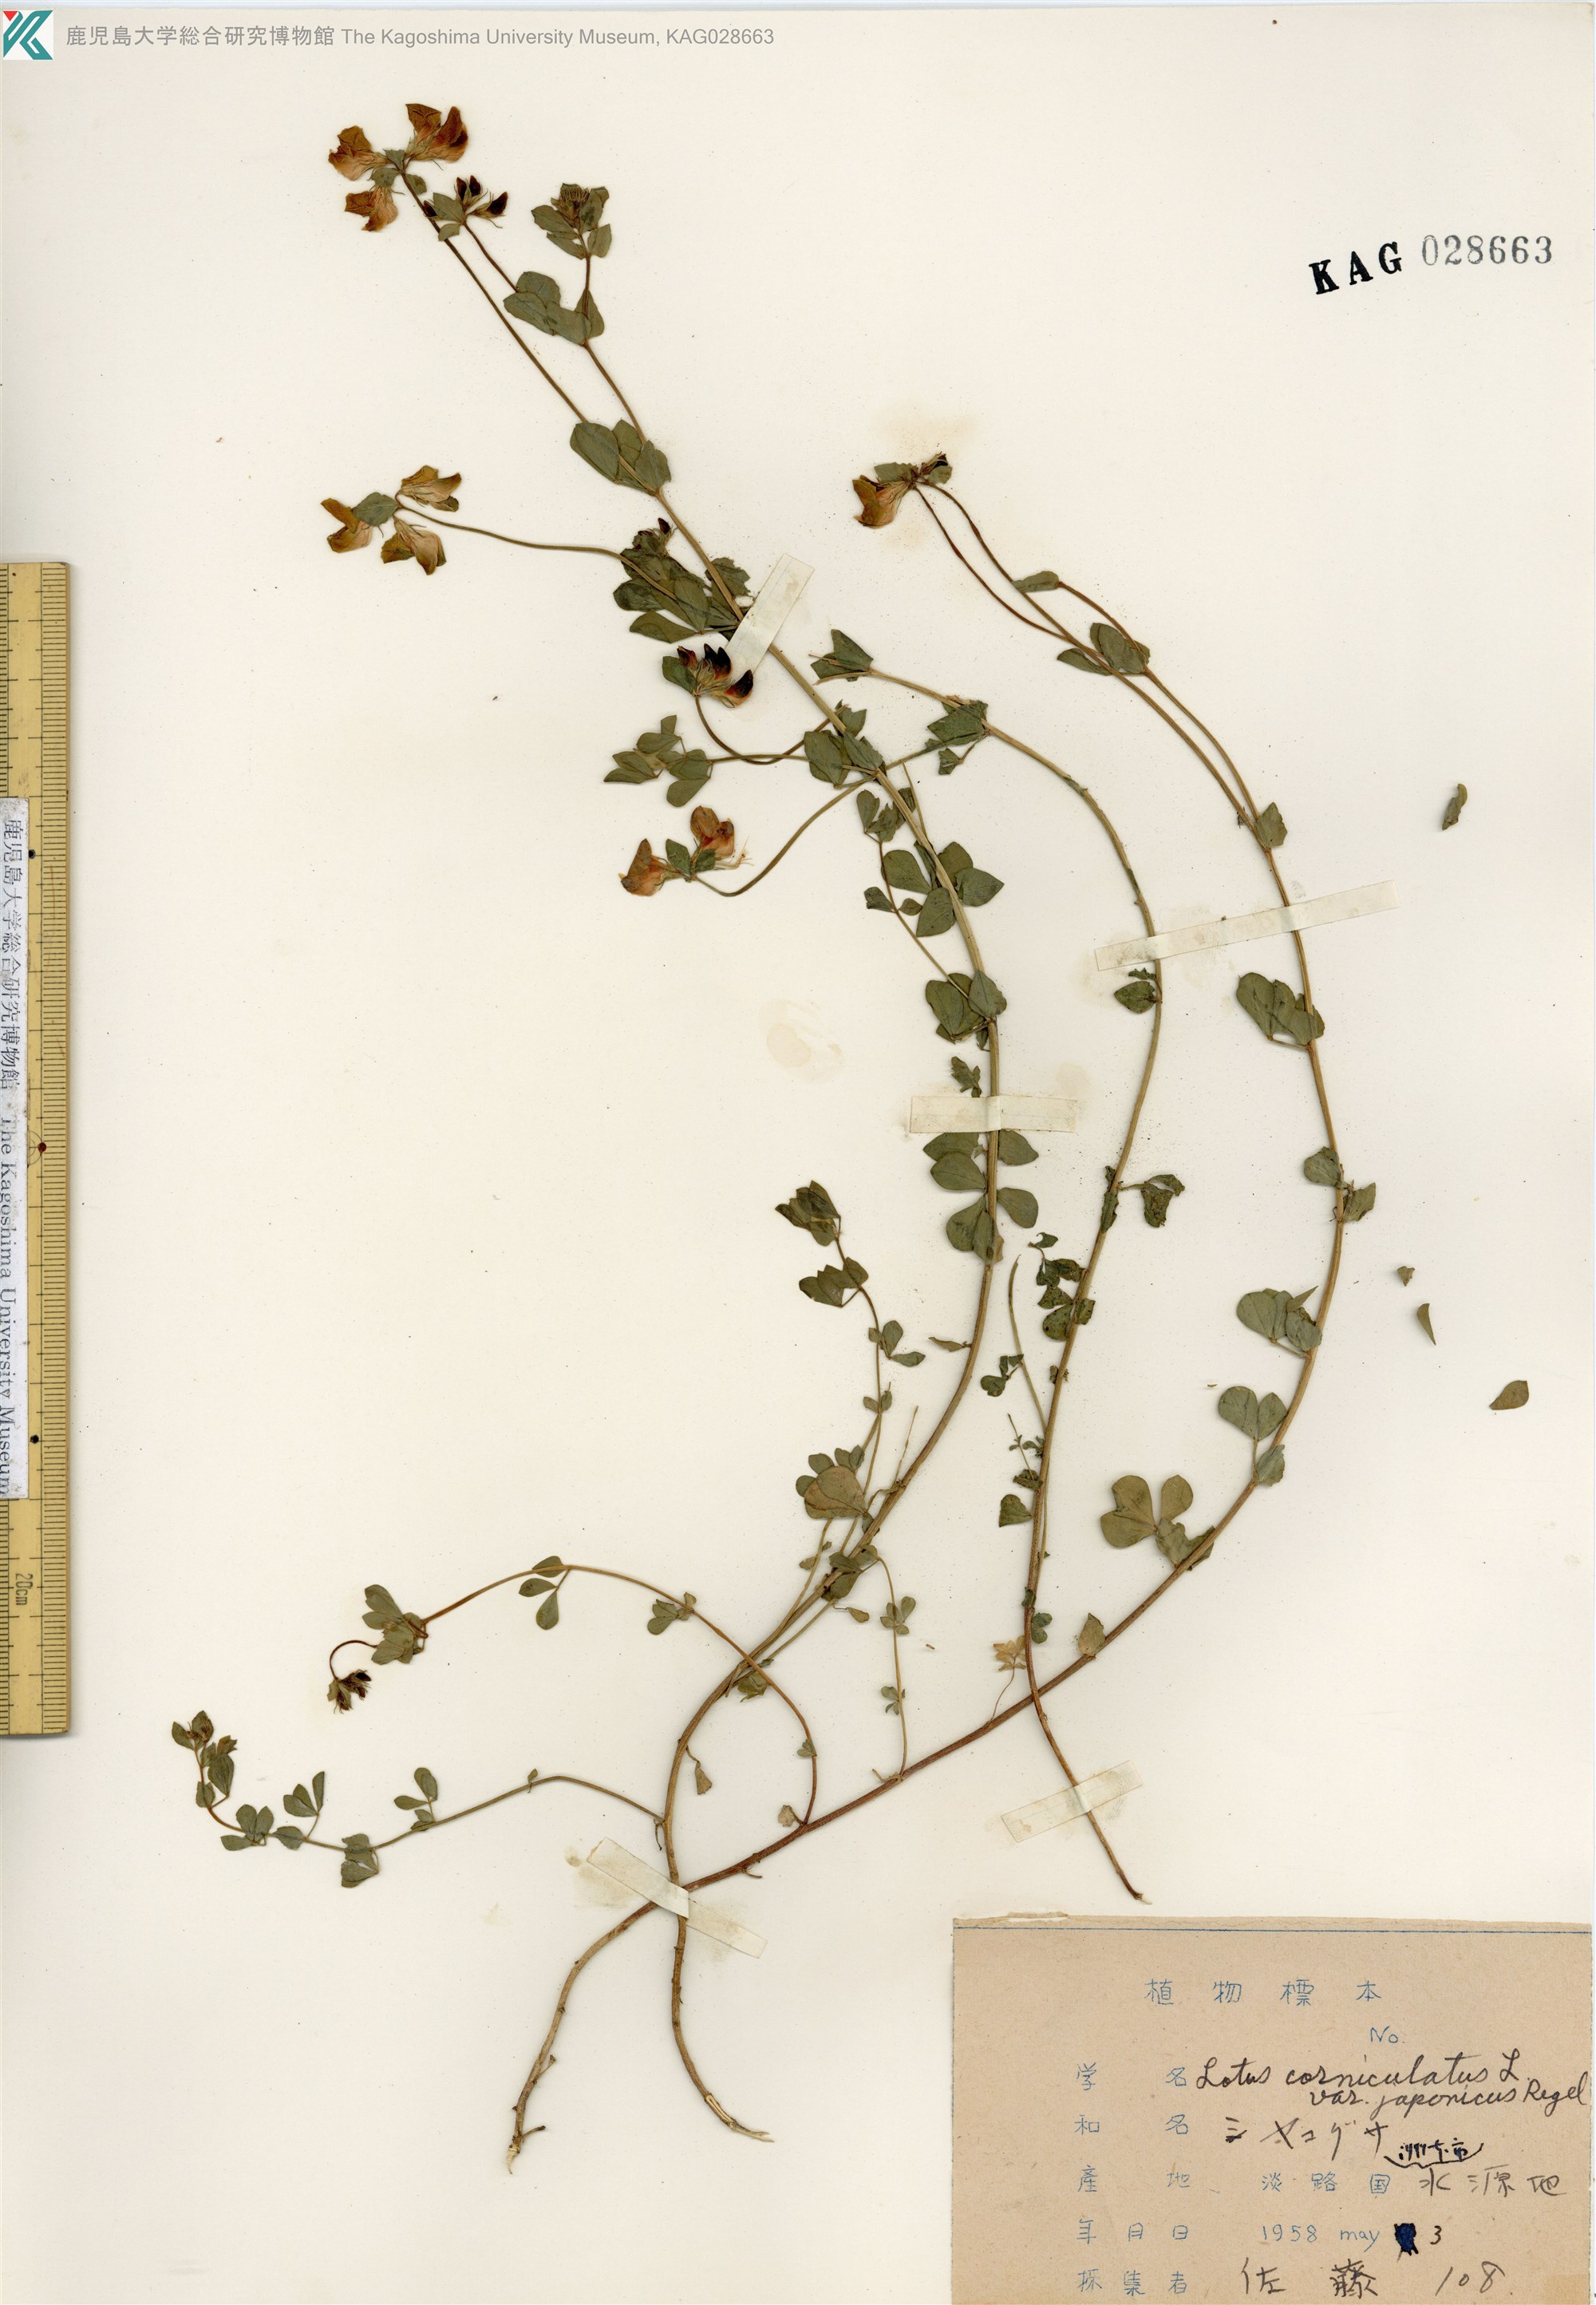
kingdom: Plantae
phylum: Tracheophyta
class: Magnoliopsida
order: Fabales
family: Fabaceae
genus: Lotus
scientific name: Lotus japonicus
